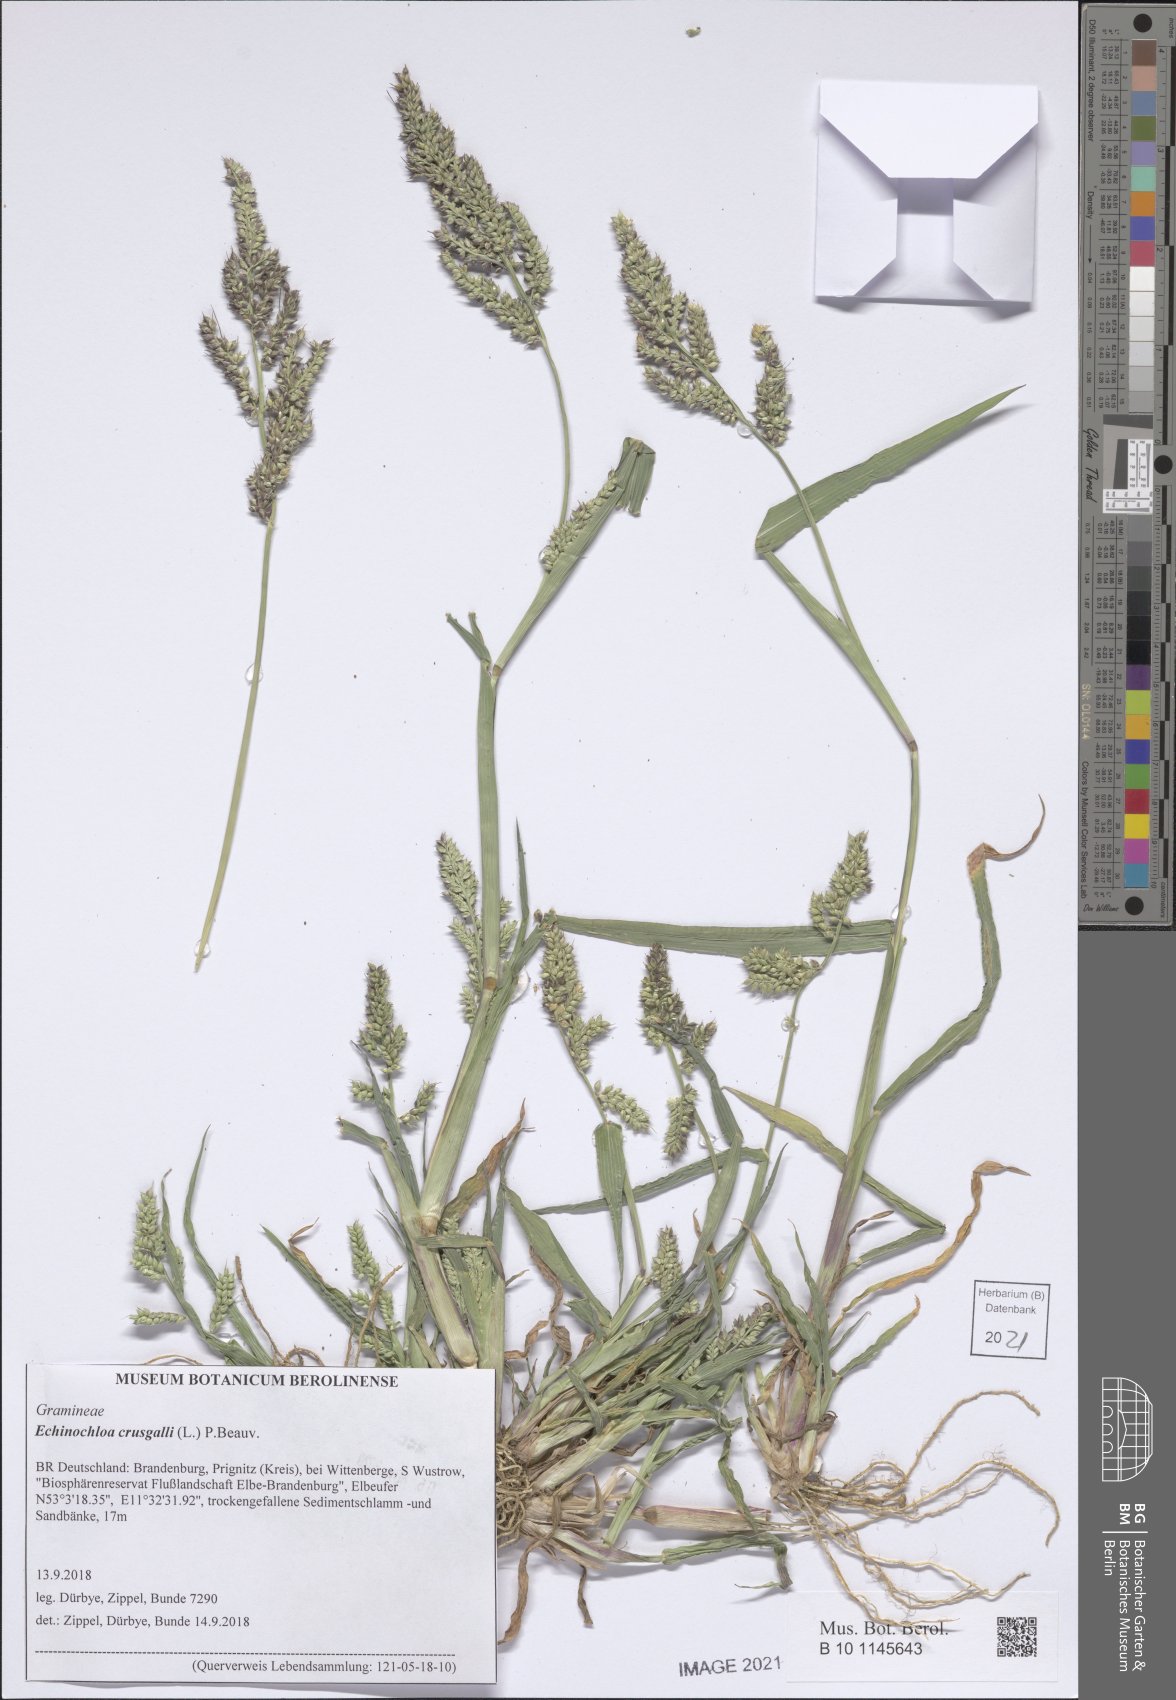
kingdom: Plantae
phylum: Tracheophyta
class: Liliopsida
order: Poales
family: Poaceae
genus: Echinochloa
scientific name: Echinochloa crus-galli
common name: Cockspur
